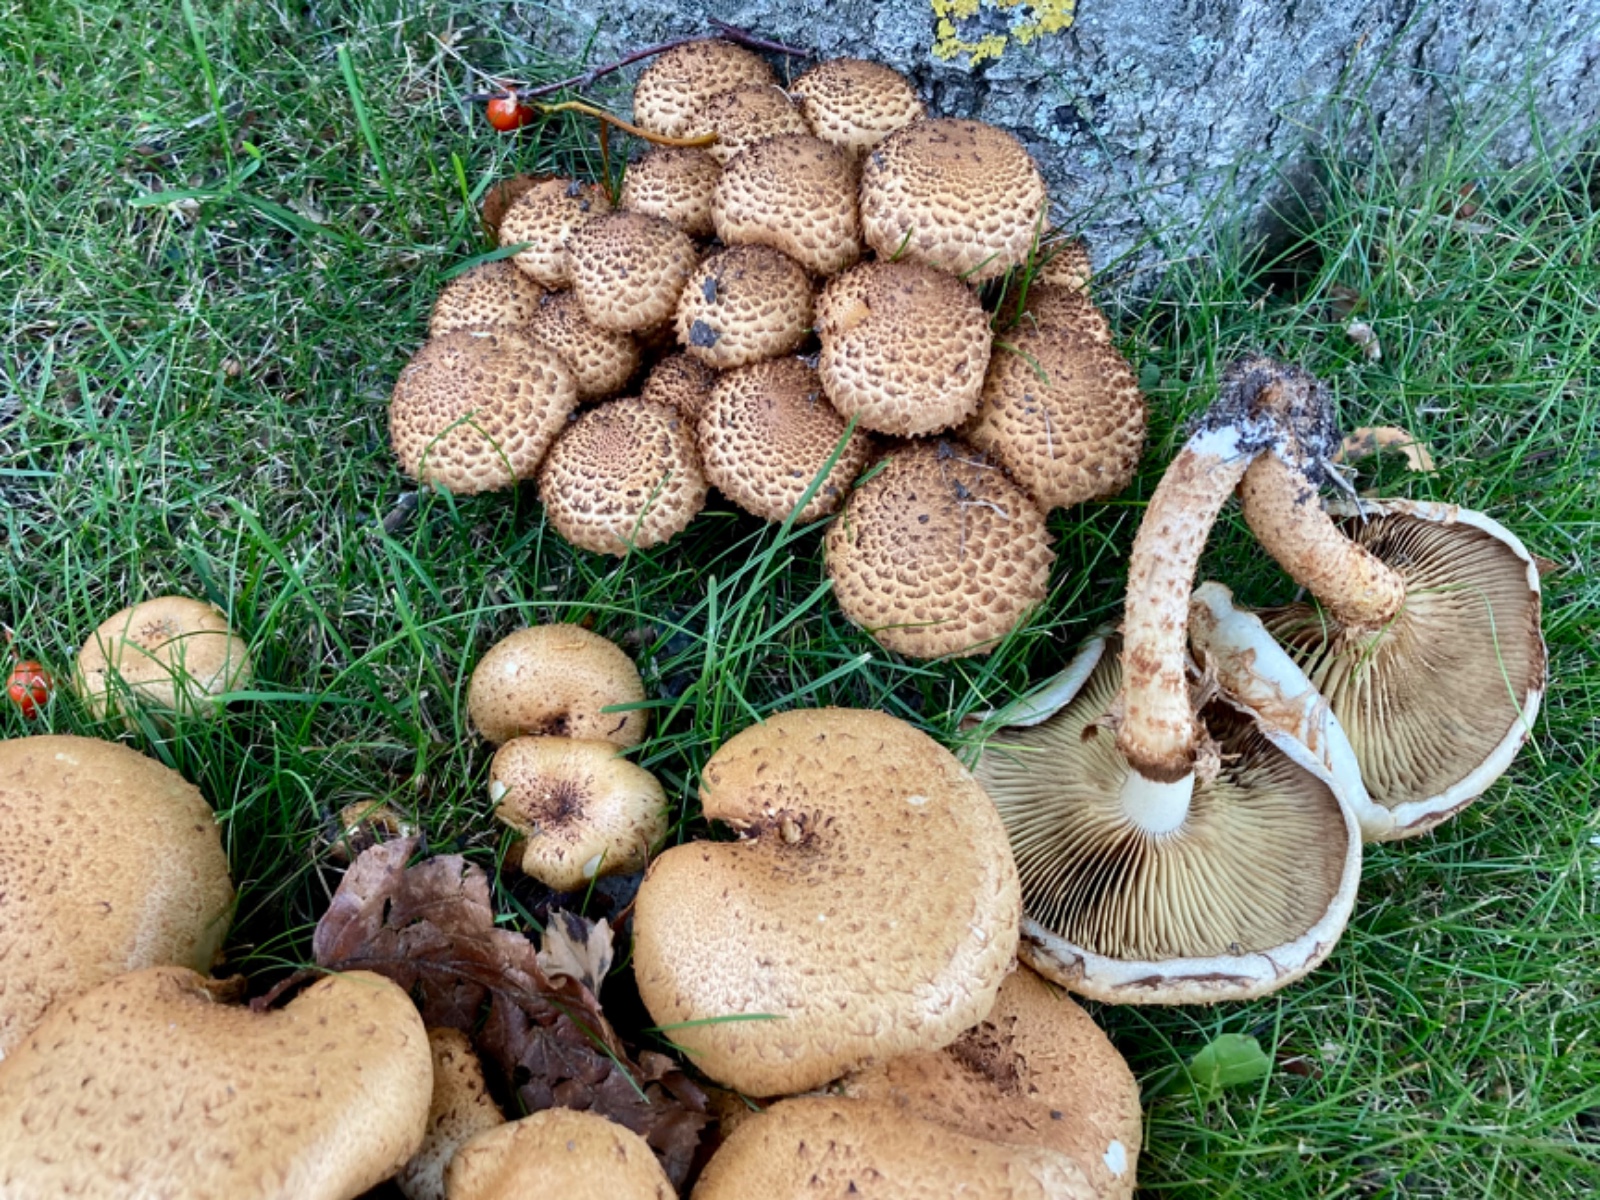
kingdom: Fungi
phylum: Basidiomycota
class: Agaricomycetes
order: Agaricales
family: Strophariaceae
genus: Pholiota
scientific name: Pholiota squarrosa
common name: krumskællet skælhat
